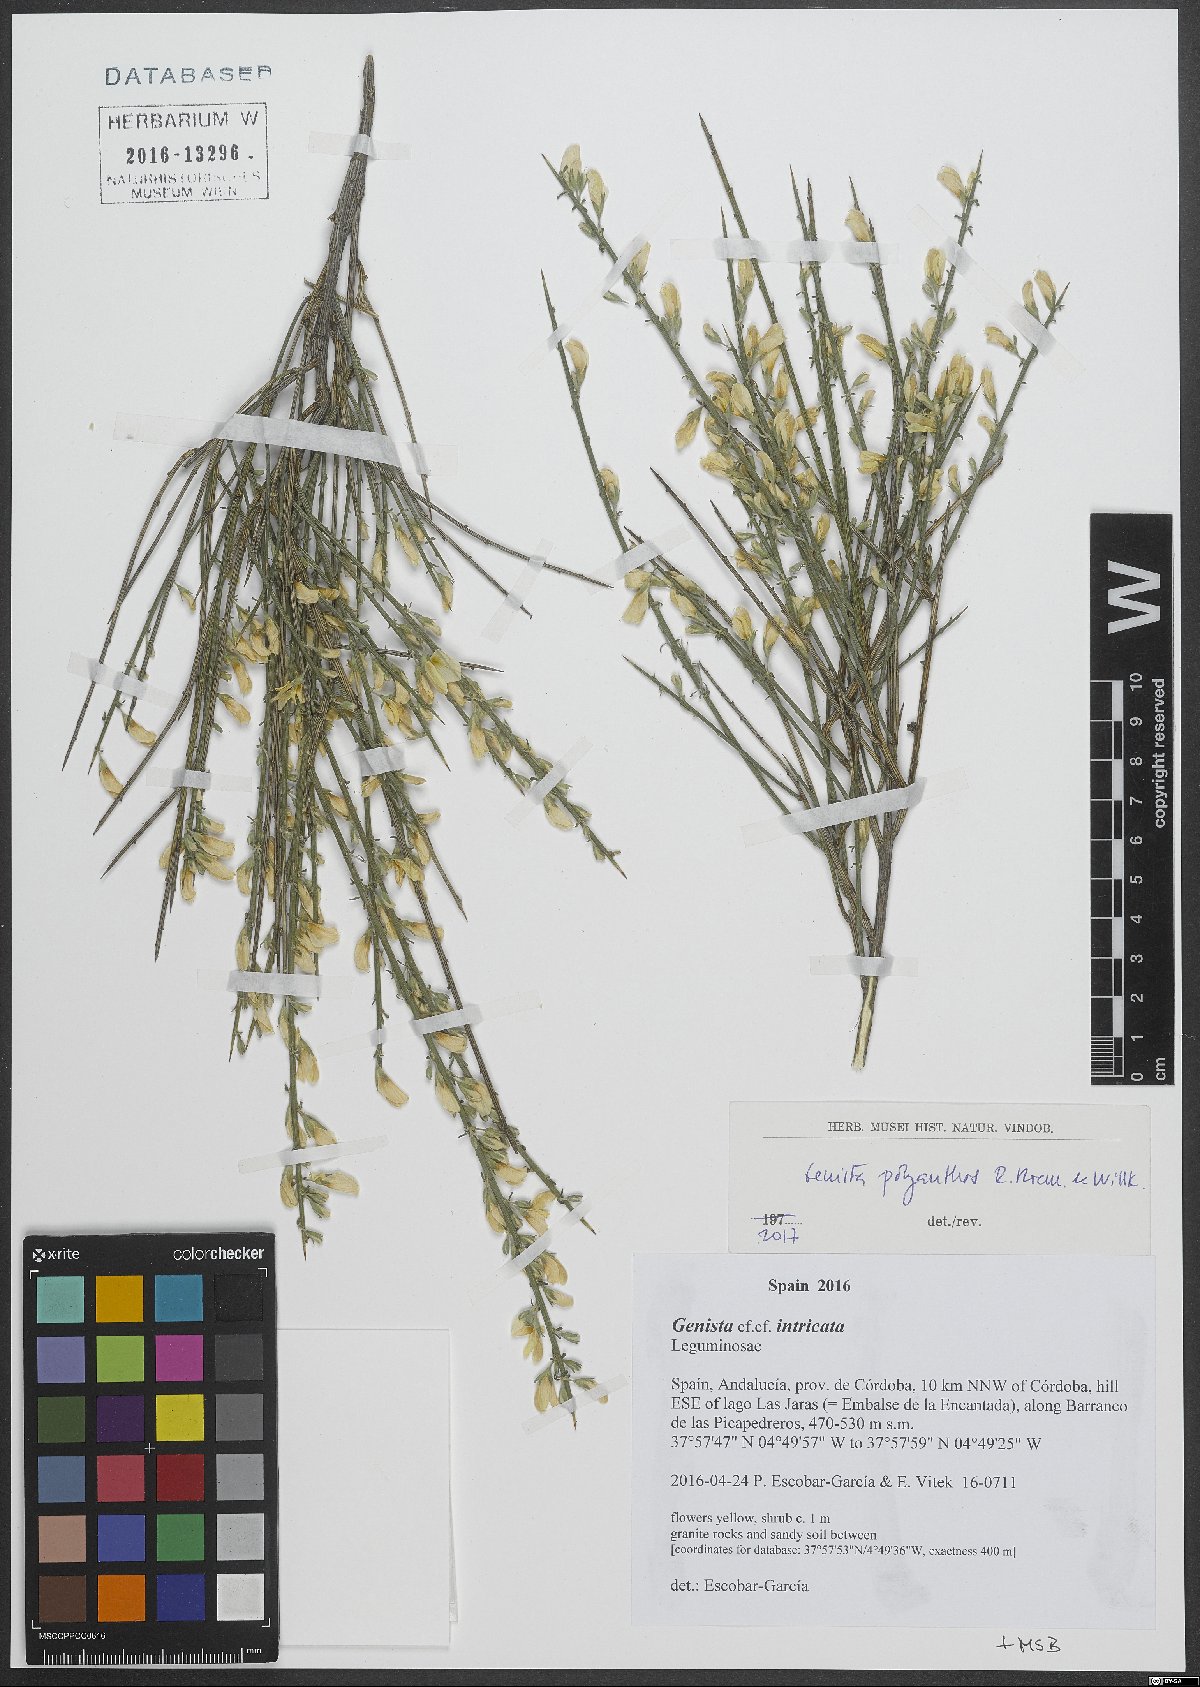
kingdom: Plantae
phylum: Tracheophyta
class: Magnoliopsida
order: Fabales
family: Fabaceae
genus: Genista
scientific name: Genista polyanthos
